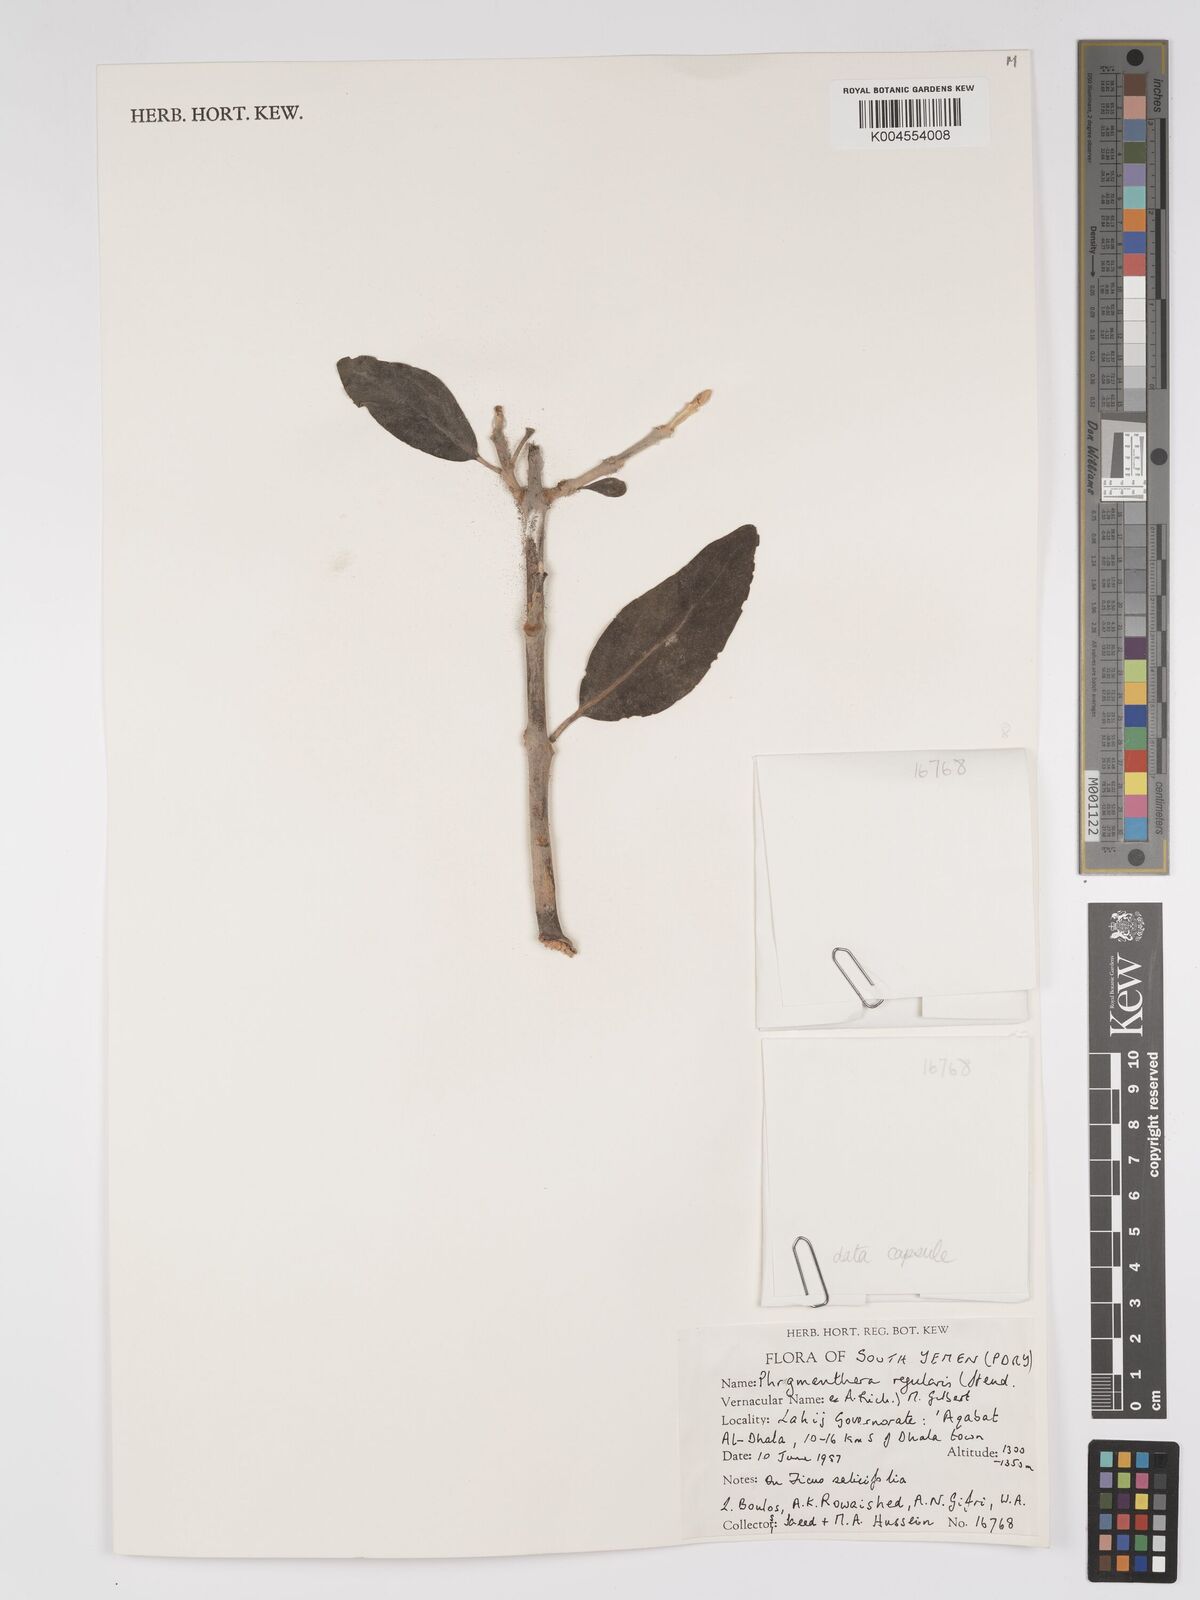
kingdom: Plantae
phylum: Tracheophyta
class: Magnoliopsida
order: Santalales
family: Loranthaceae
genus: Phragmanthera
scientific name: Phragmanthera regularis
